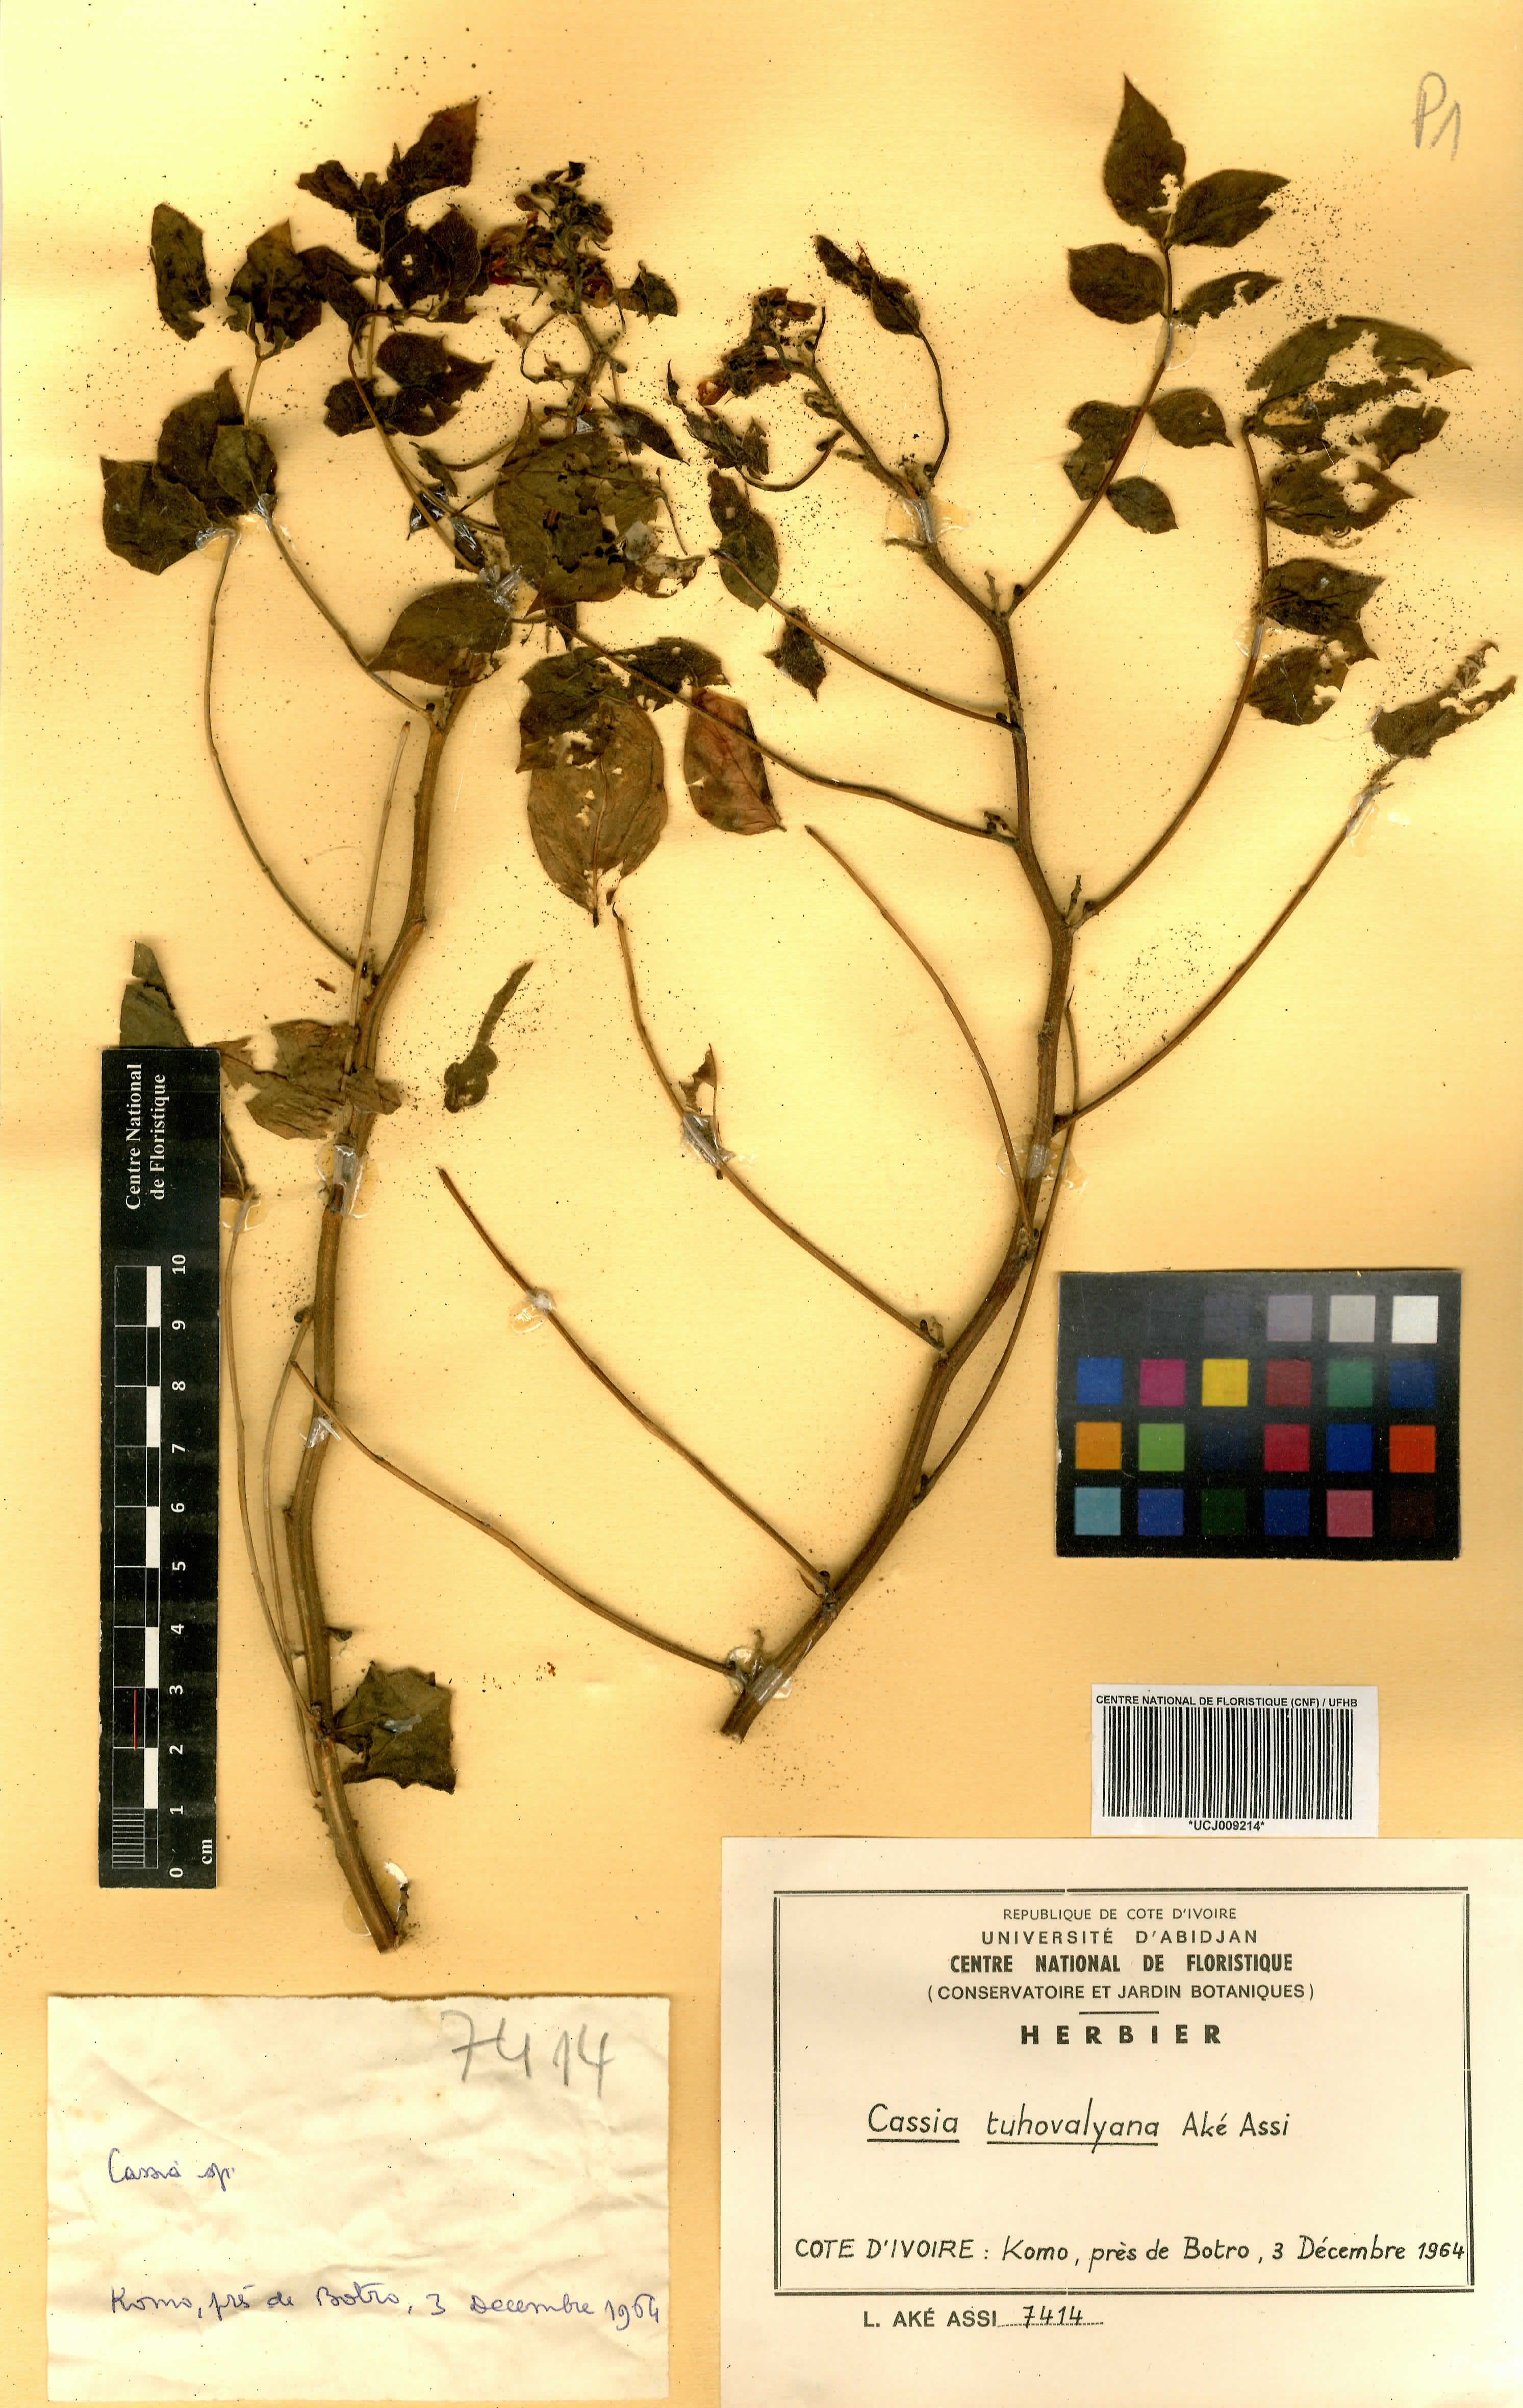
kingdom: Plantae
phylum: Tracheophyta
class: Magnoliopsida
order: Fabales
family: Fabaceae
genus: Senna
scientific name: Senna tuhovalyana
